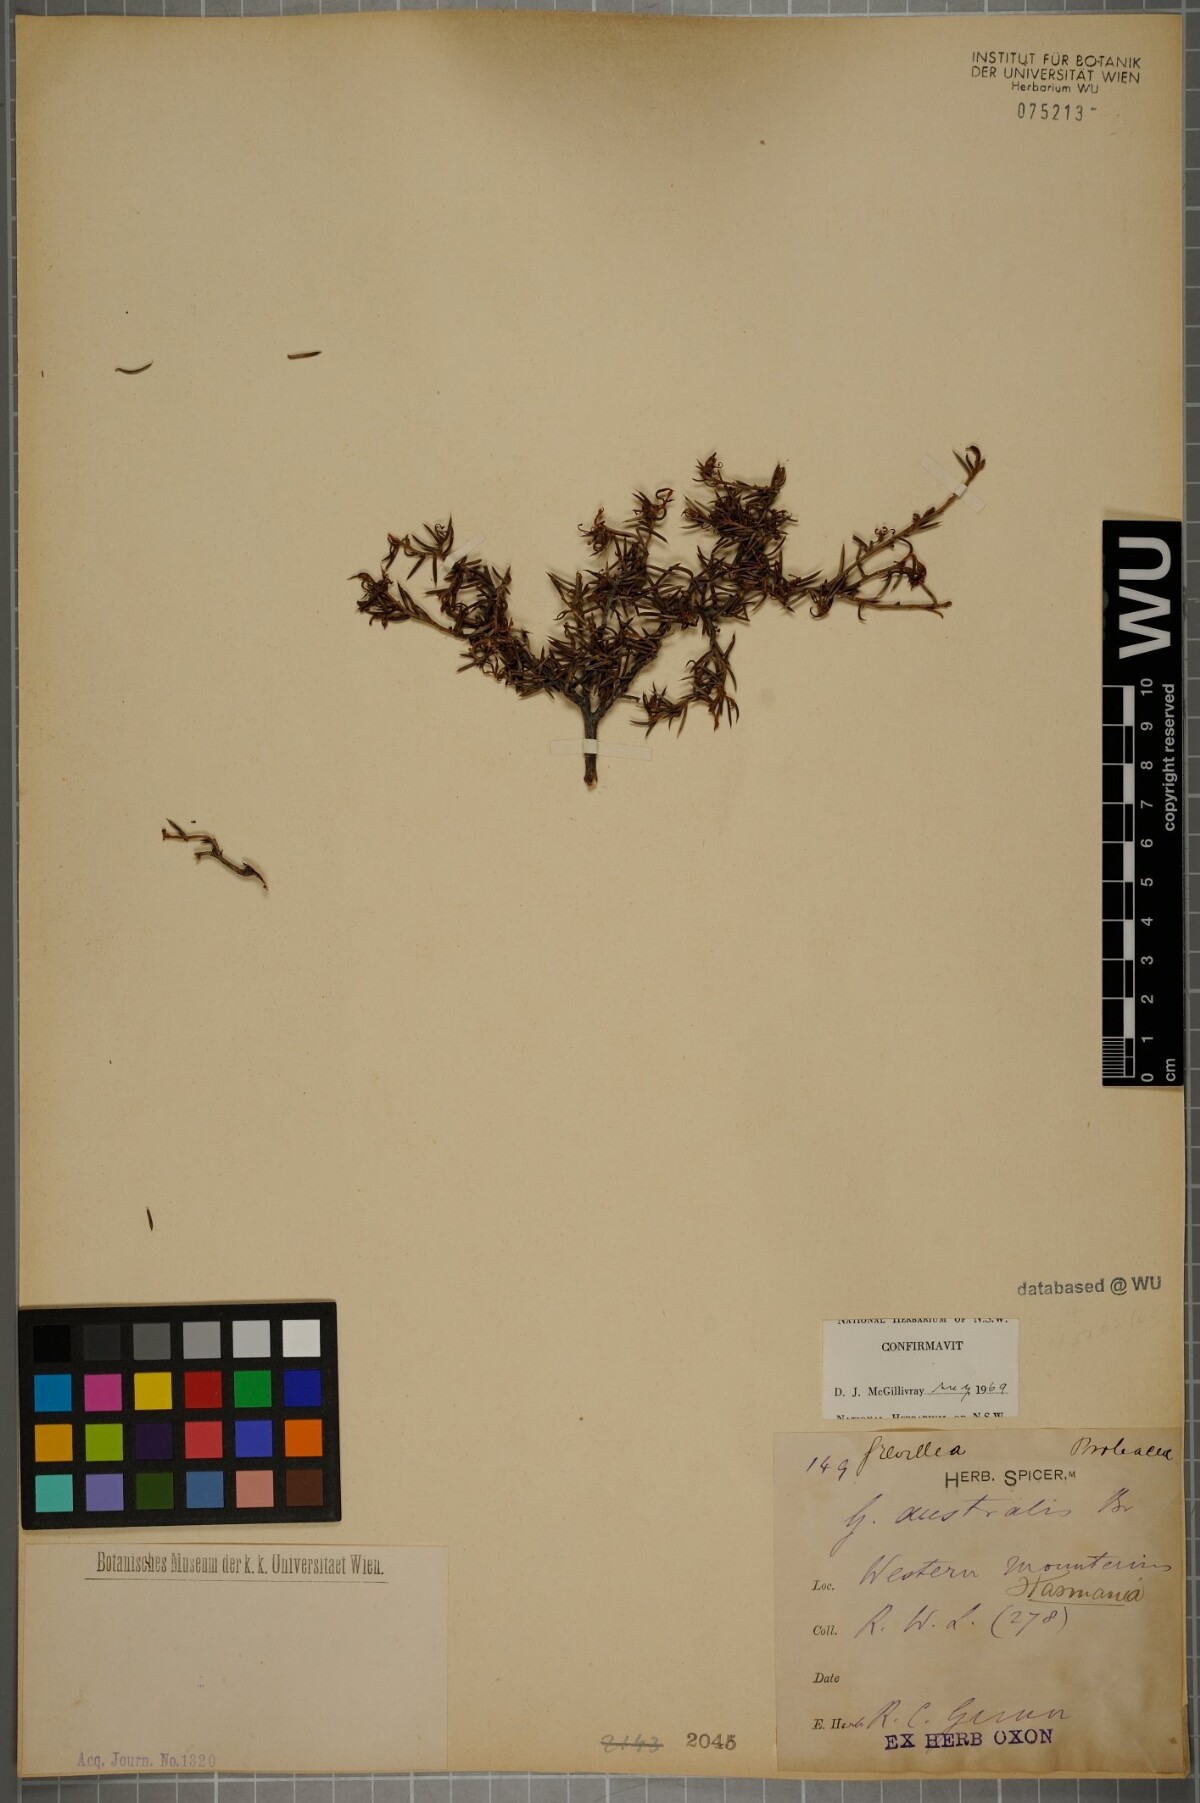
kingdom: Plantae
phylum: Tracheophyta
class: Magnoliopsida
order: Proteales
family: Proteaceae
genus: Grevillea
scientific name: Grevillea australis
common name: Alpine grevillea
